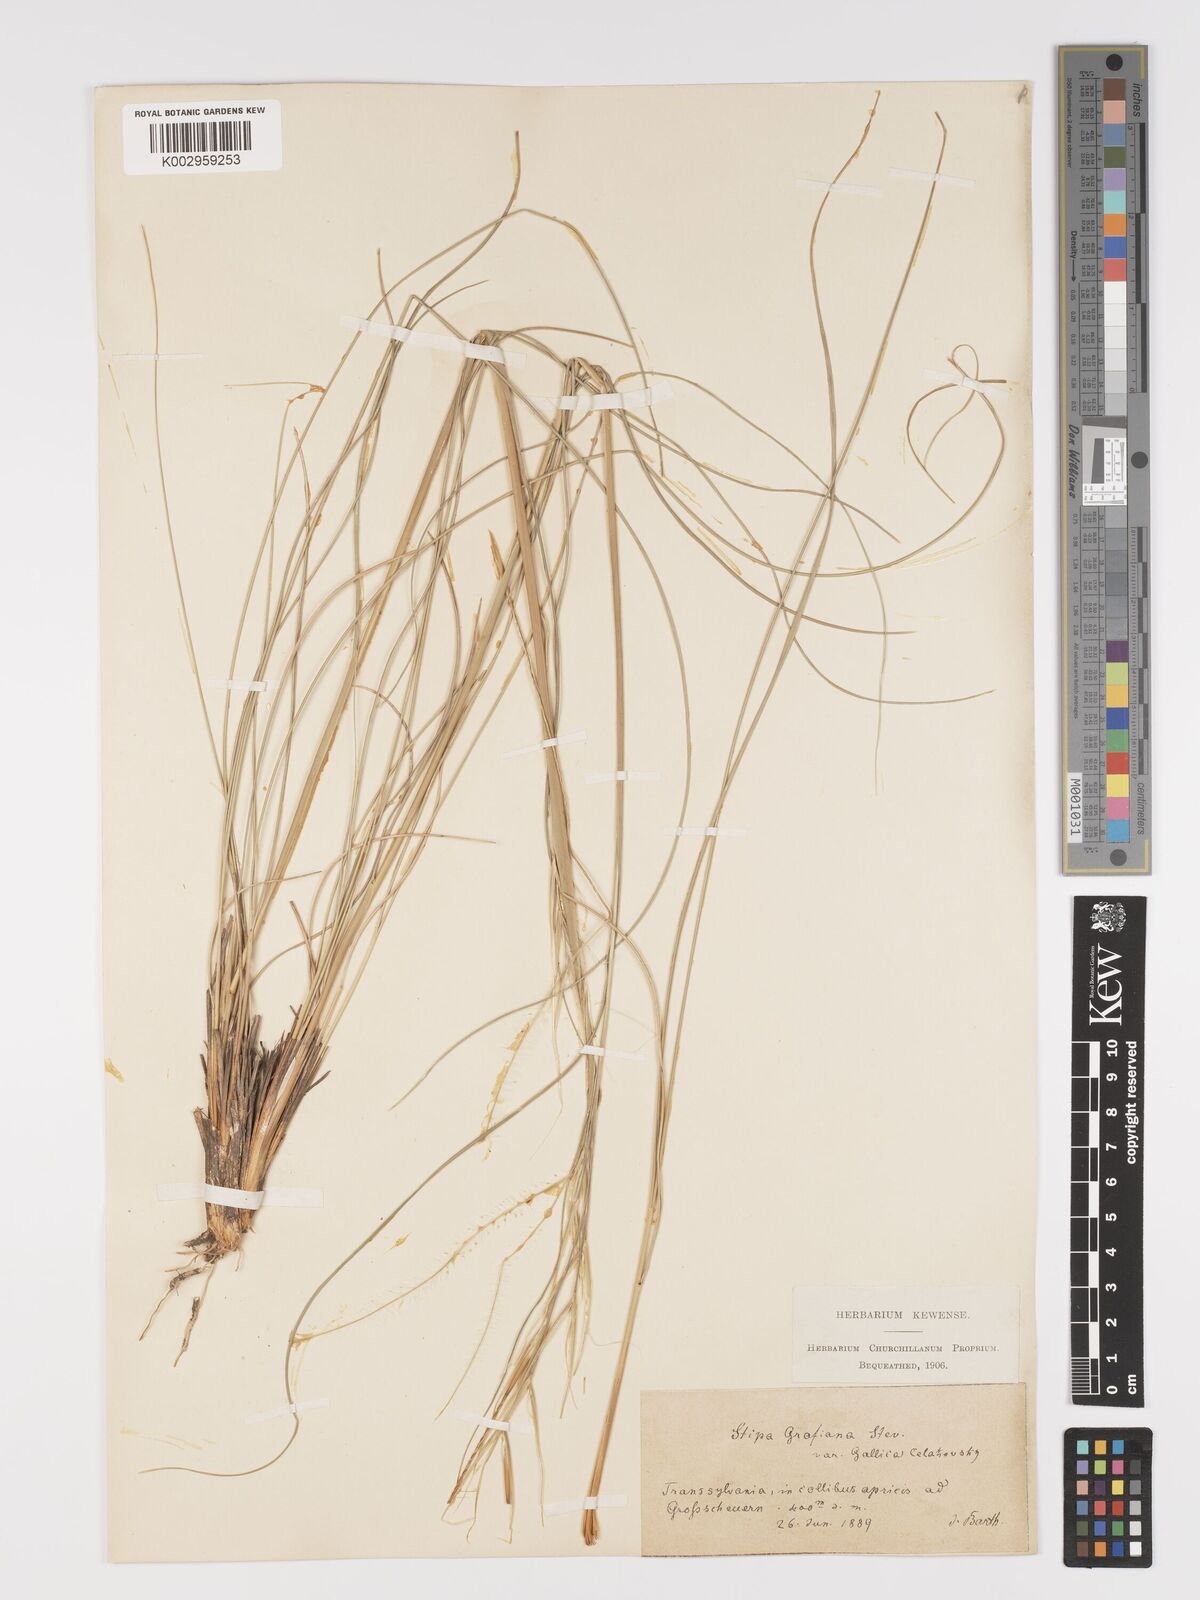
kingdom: Plantae
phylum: Tracheophyta
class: Liliopsida
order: Poales
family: Poaceae
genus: Stipa
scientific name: Stipa pulcherrima
